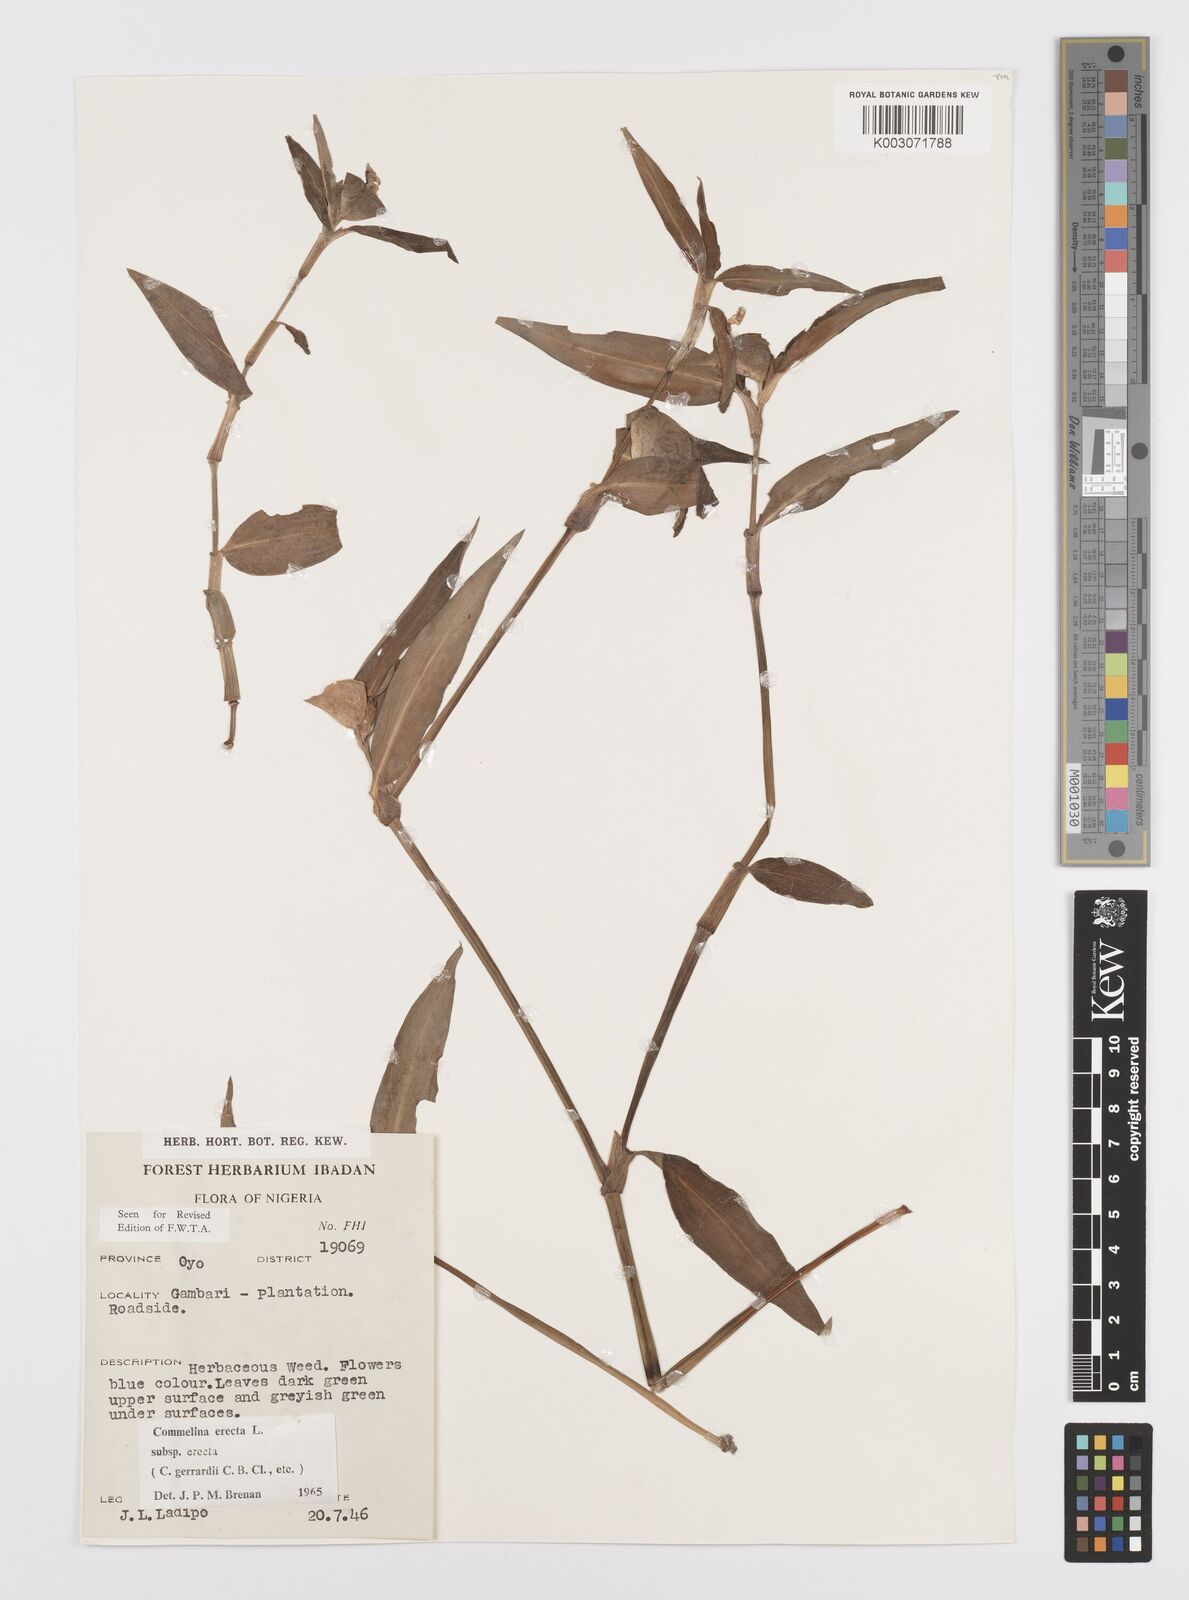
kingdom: Plantae
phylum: Tracheophyta
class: Liliopsida
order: Commelinales
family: Commelinaceae
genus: Commelina
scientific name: Commelina erecta
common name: Blousel blommetjie
